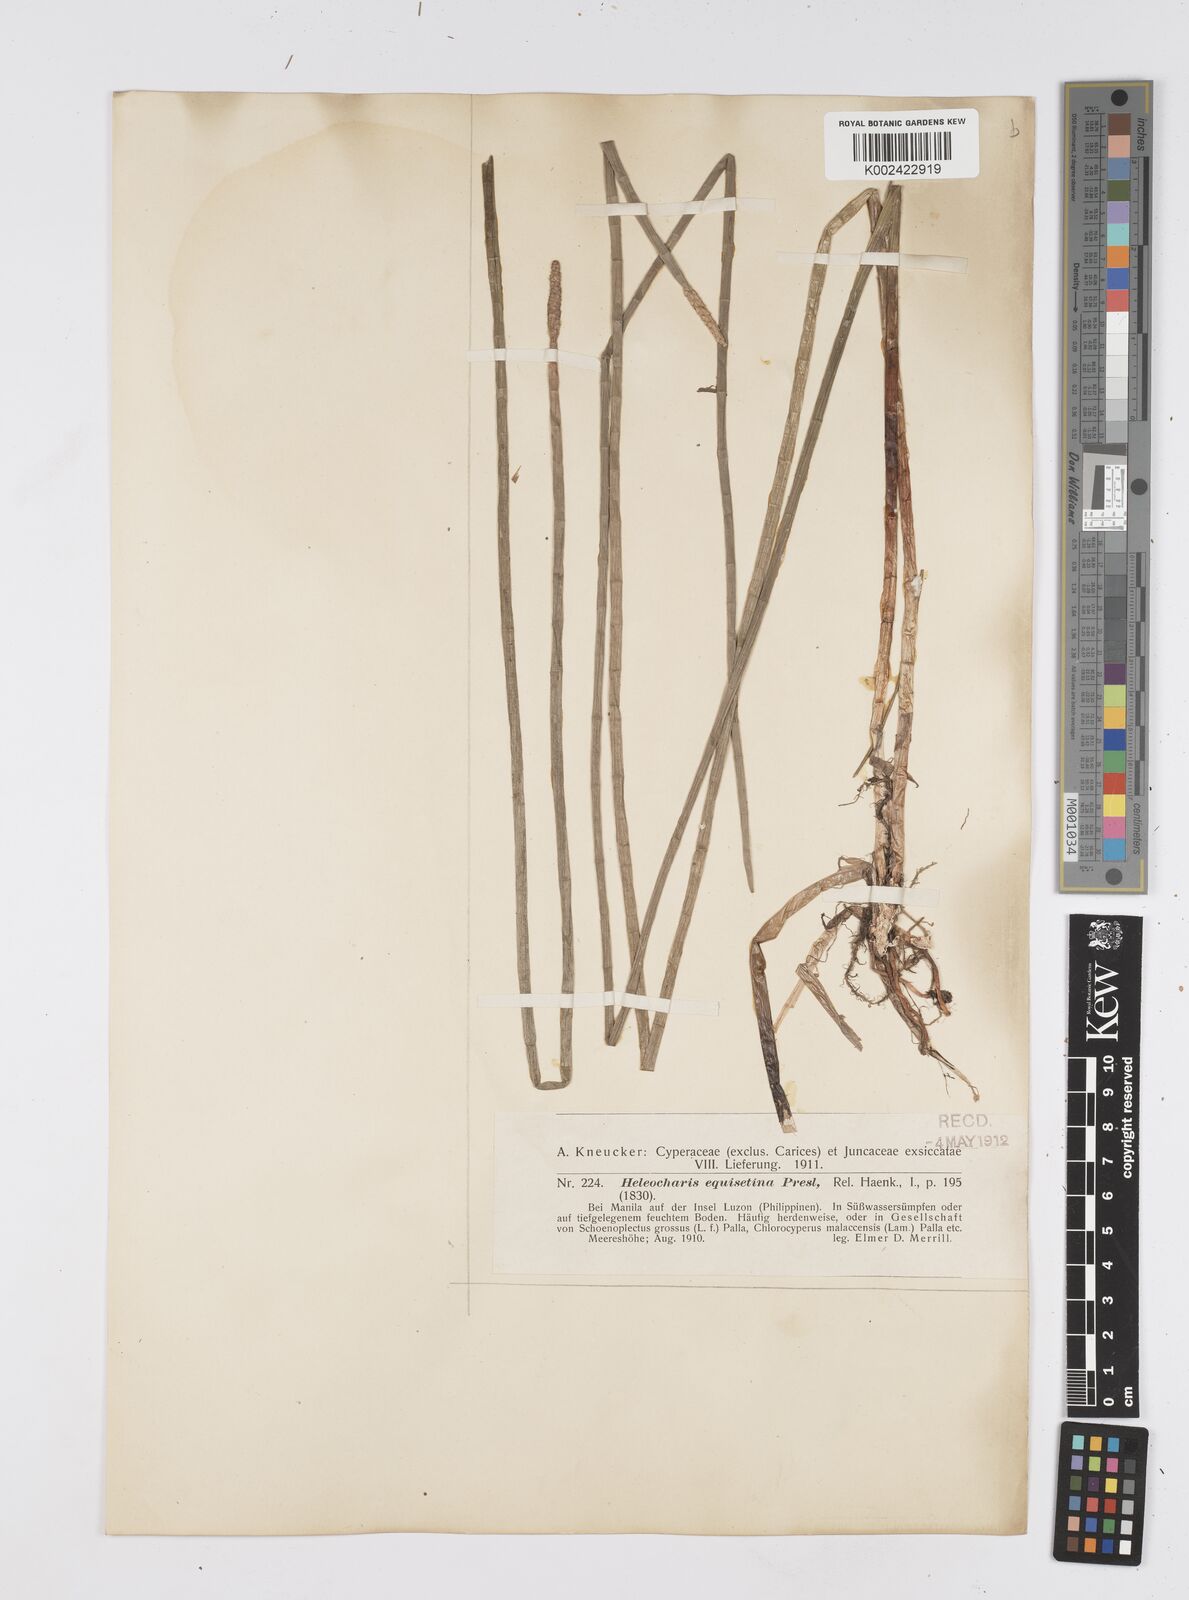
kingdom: Plantae
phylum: Tracheophyta
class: Liliopsida
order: Poales
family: Cyperaceae
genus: Eleocharis
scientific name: Eleocharis dulcis
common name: Chinese water chestnut
